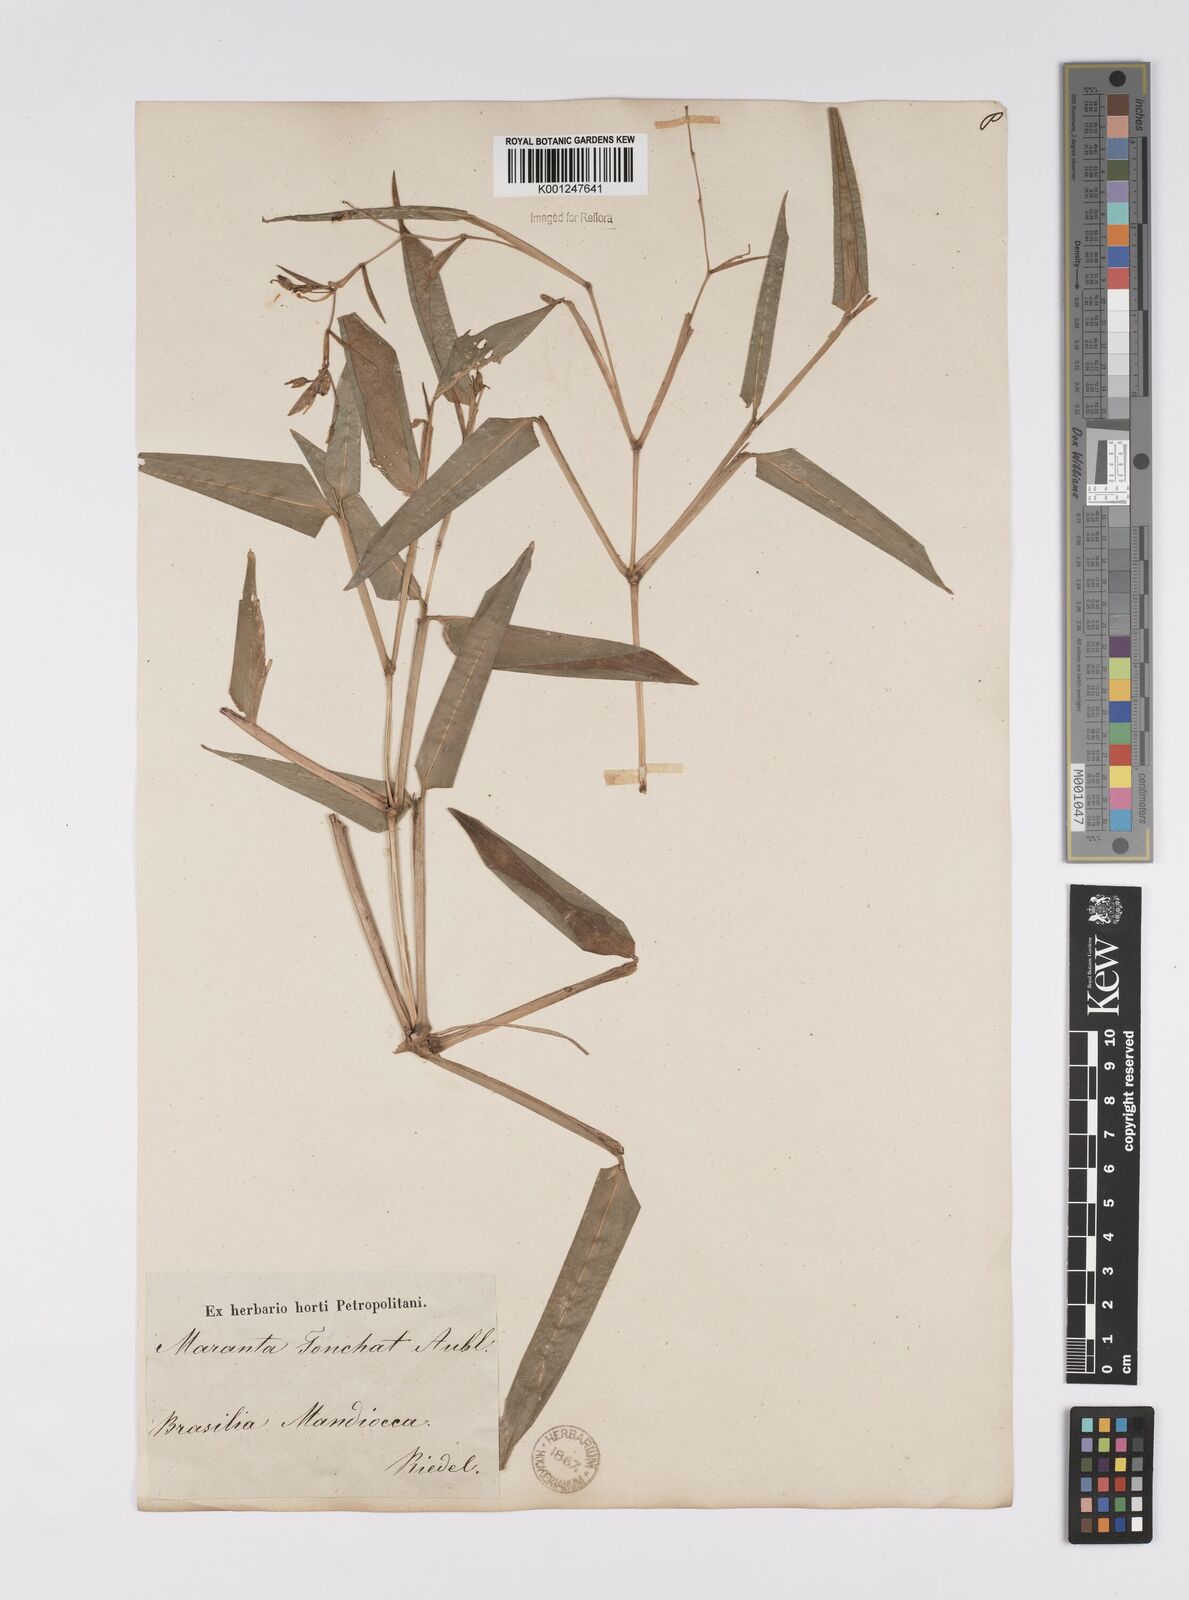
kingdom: Plantae
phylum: Tracheophyta
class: Liliopsida
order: Zingiberales
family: Marantaceae
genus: Stromanthe
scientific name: Stromanthe tonckat
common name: Stromanthe
